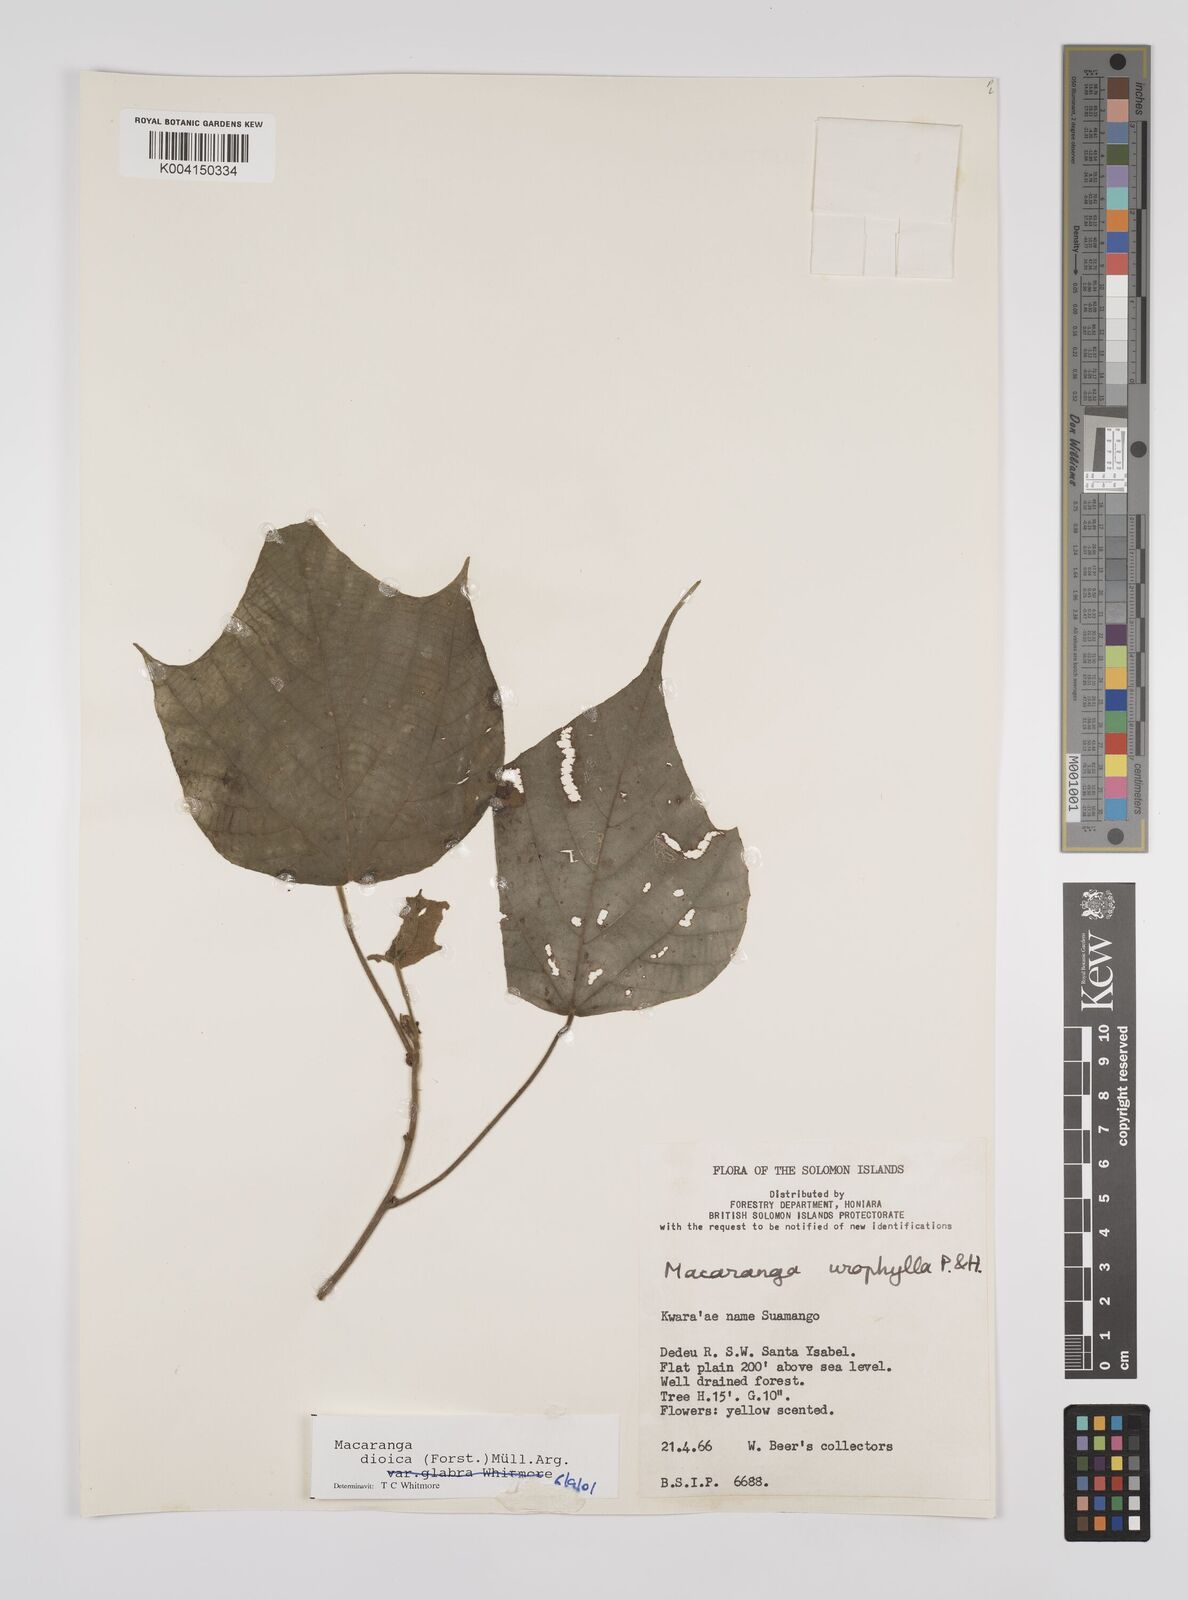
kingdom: Plantae
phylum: Tracheophyta
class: Magnoliopsida
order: Malpighiales
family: Euphorbiaceae
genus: Macaranga
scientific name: Macaranga dioica
